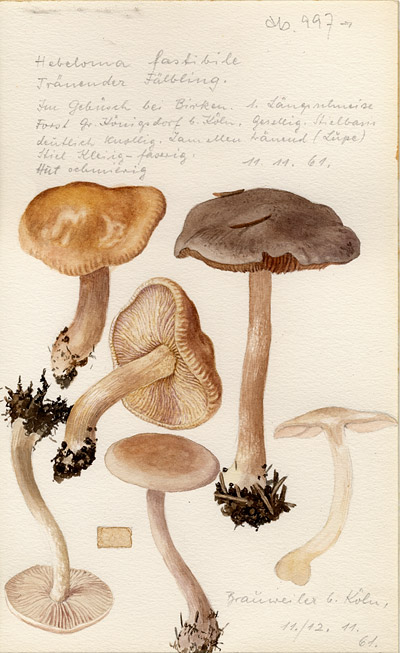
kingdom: Fungi
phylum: Basidiomycota
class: Agaricomycetes
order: Agaricales
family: Hymenogastraceae
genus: Hebeloma
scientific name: Hebeloma
